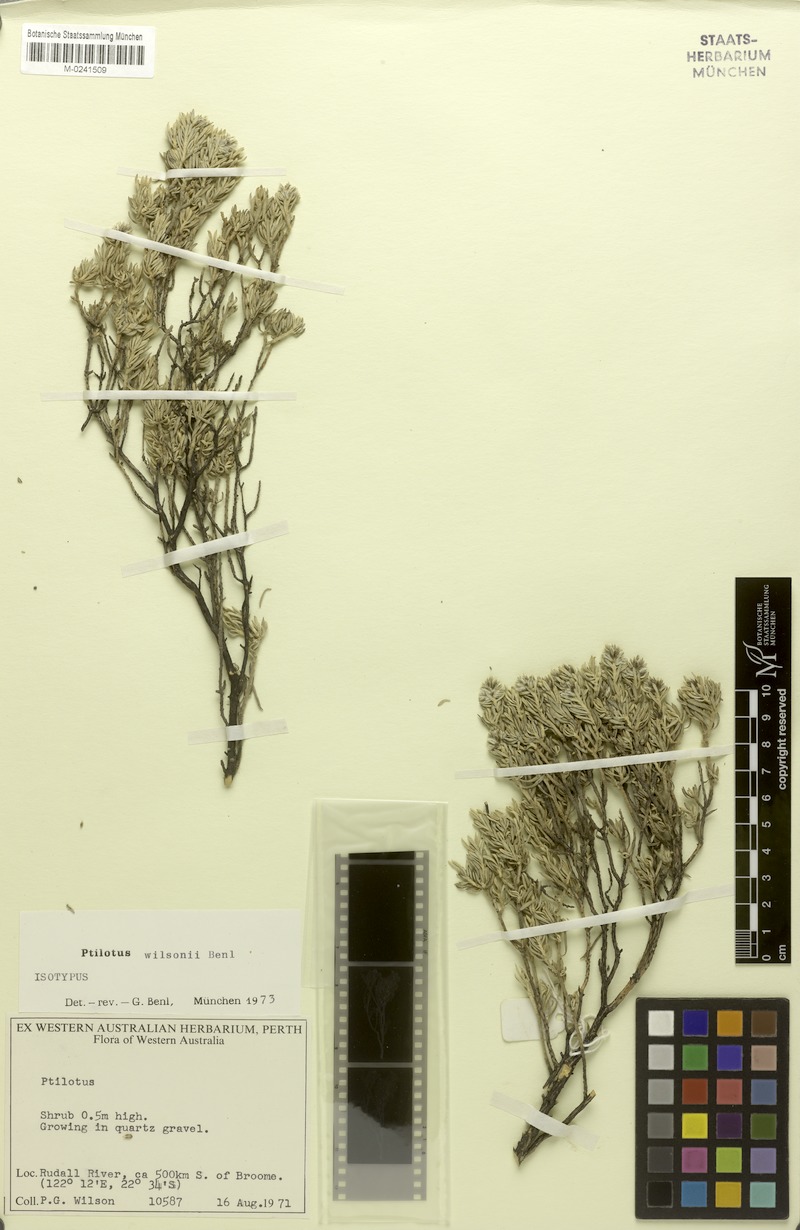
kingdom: Plantae
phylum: Tracheophyta
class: Magnoliopsida
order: Caryophyllales
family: Amaranthaceae
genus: Ptilotus
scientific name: Ptilotus wilsonii
